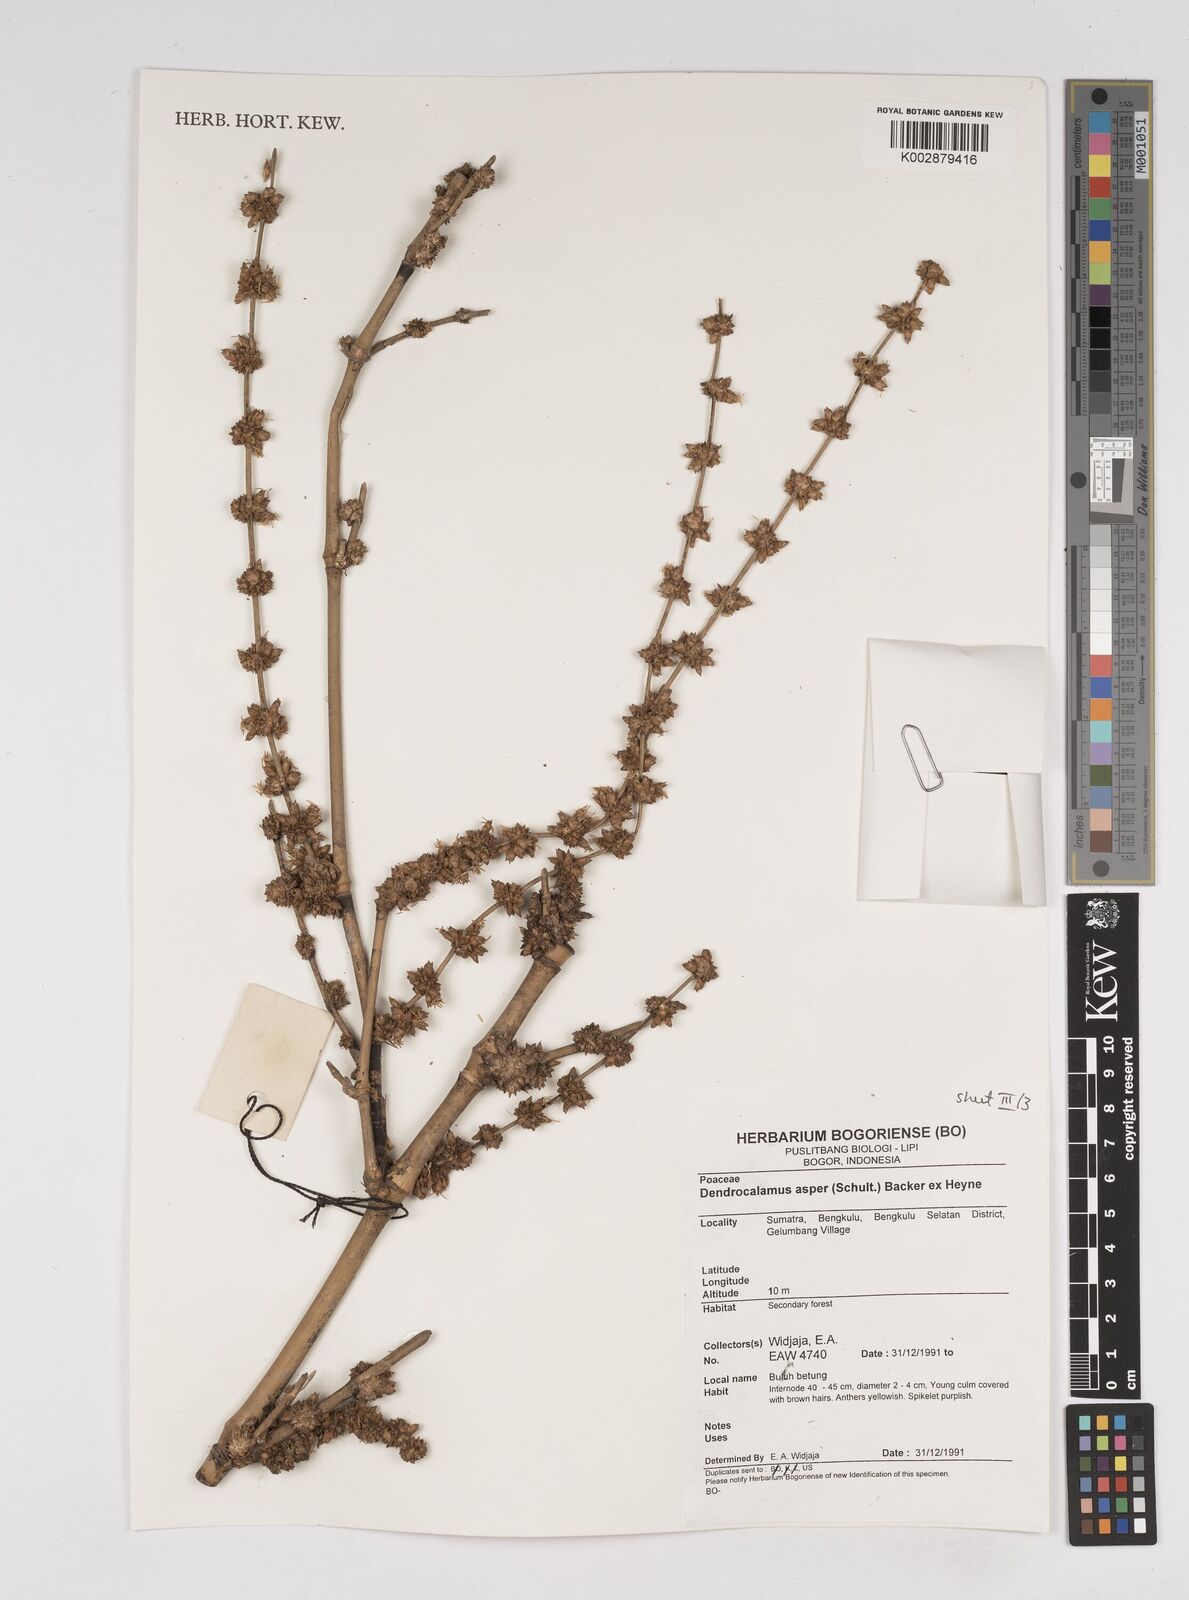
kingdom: Plantae
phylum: Tracheophyta
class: Liliopsida
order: Poales
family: Poaceae
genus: Dendrocalamus
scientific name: Dendrocalamus asper
